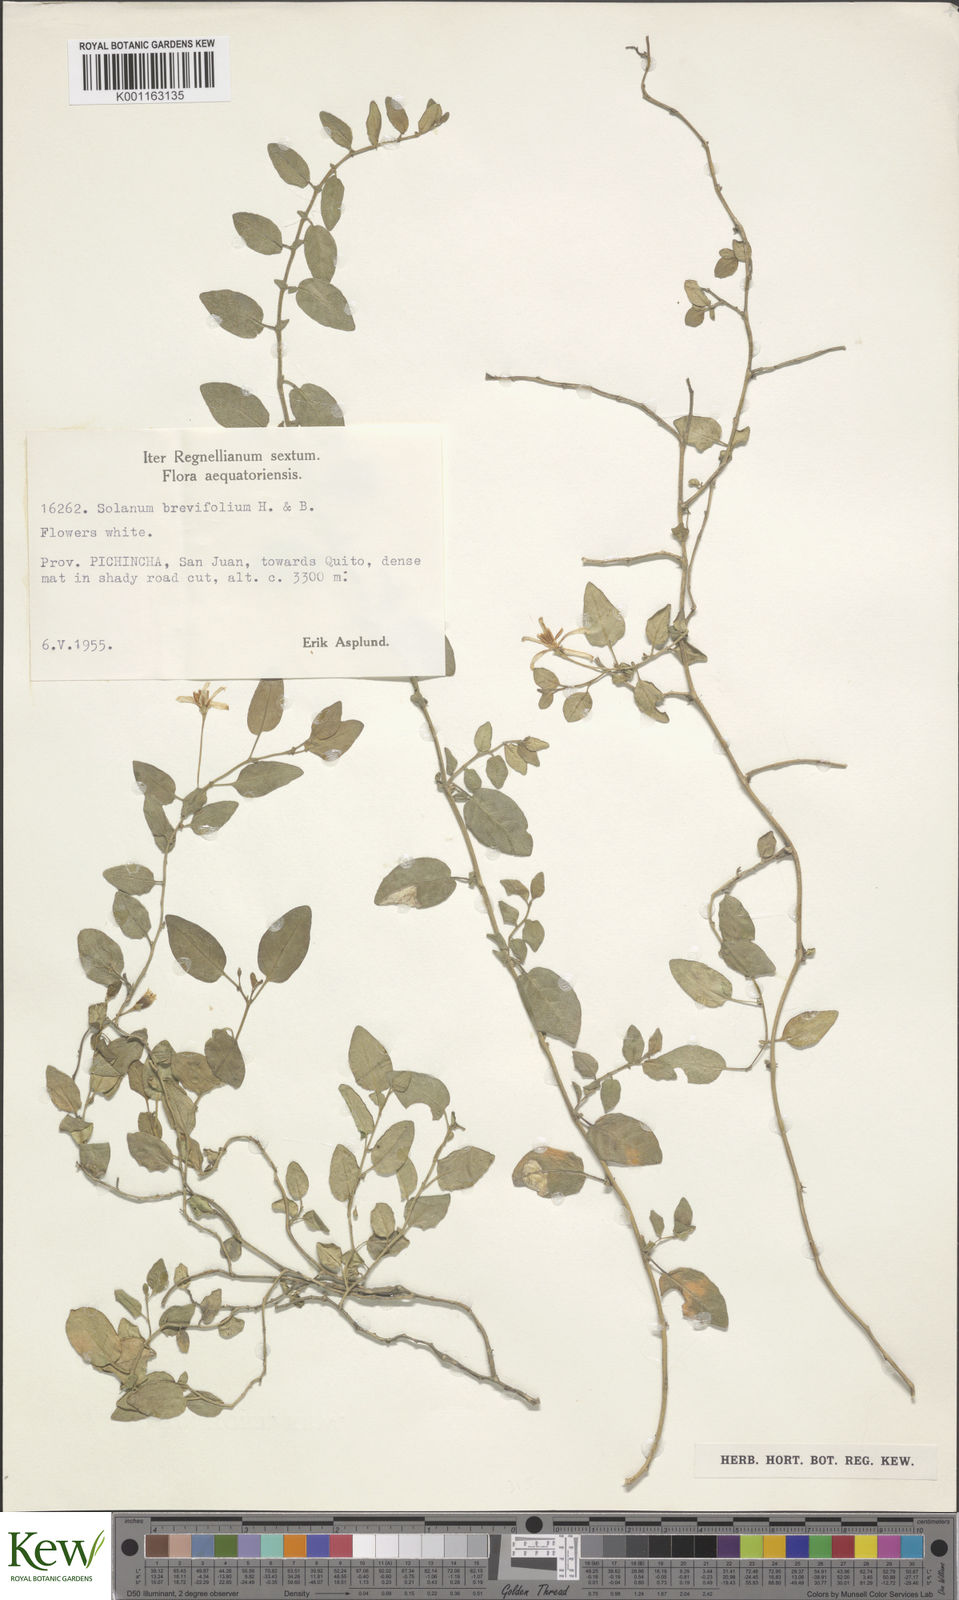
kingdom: Plantae
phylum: Tracheophyta
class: Magnoliopsida
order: Solanales
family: Solanaceae
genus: Solanum
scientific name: Solanum brevifolium
